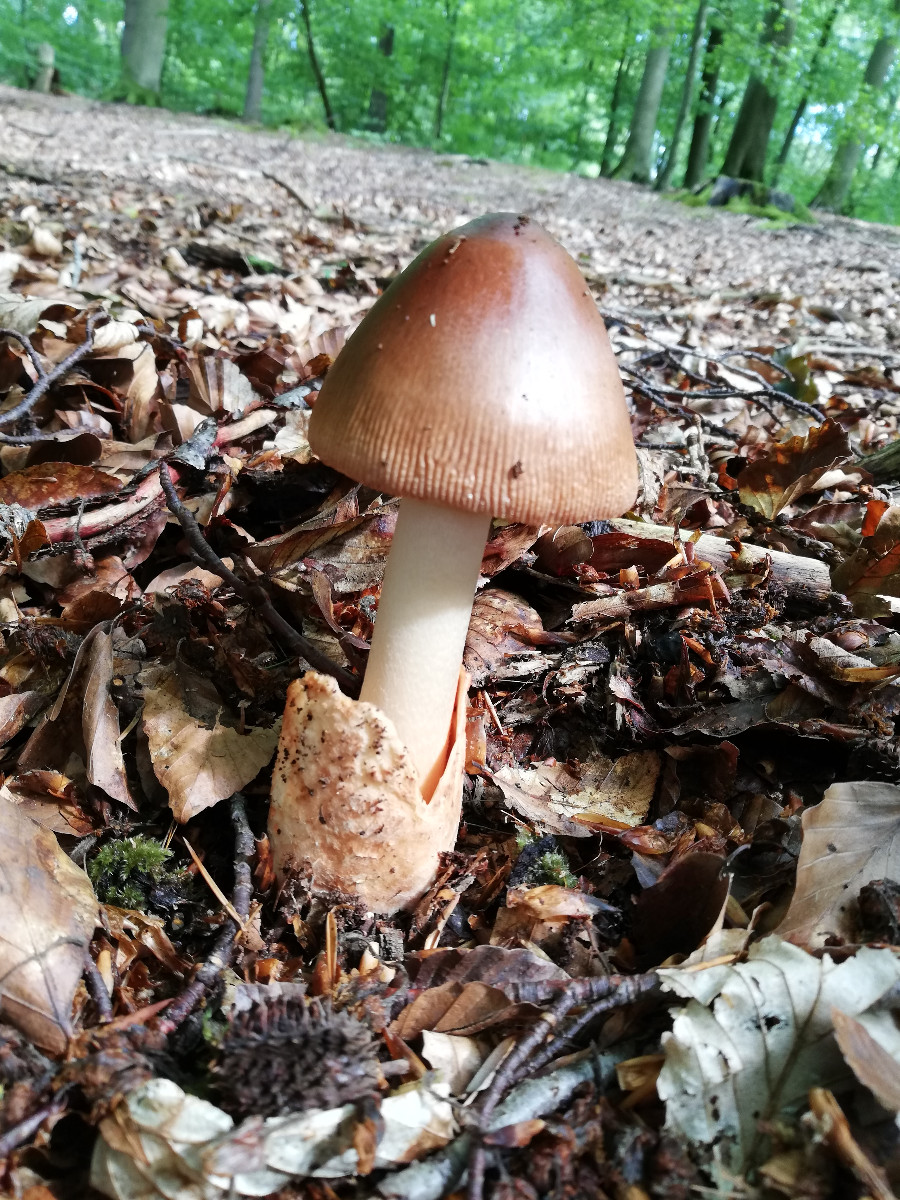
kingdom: Fungi
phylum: Basidiomycota
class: Agaricomycetes
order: Agaricales
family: Amanitaceae
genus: Amanita
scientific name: Amanita fulva
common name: brun kam-fluesvamp
